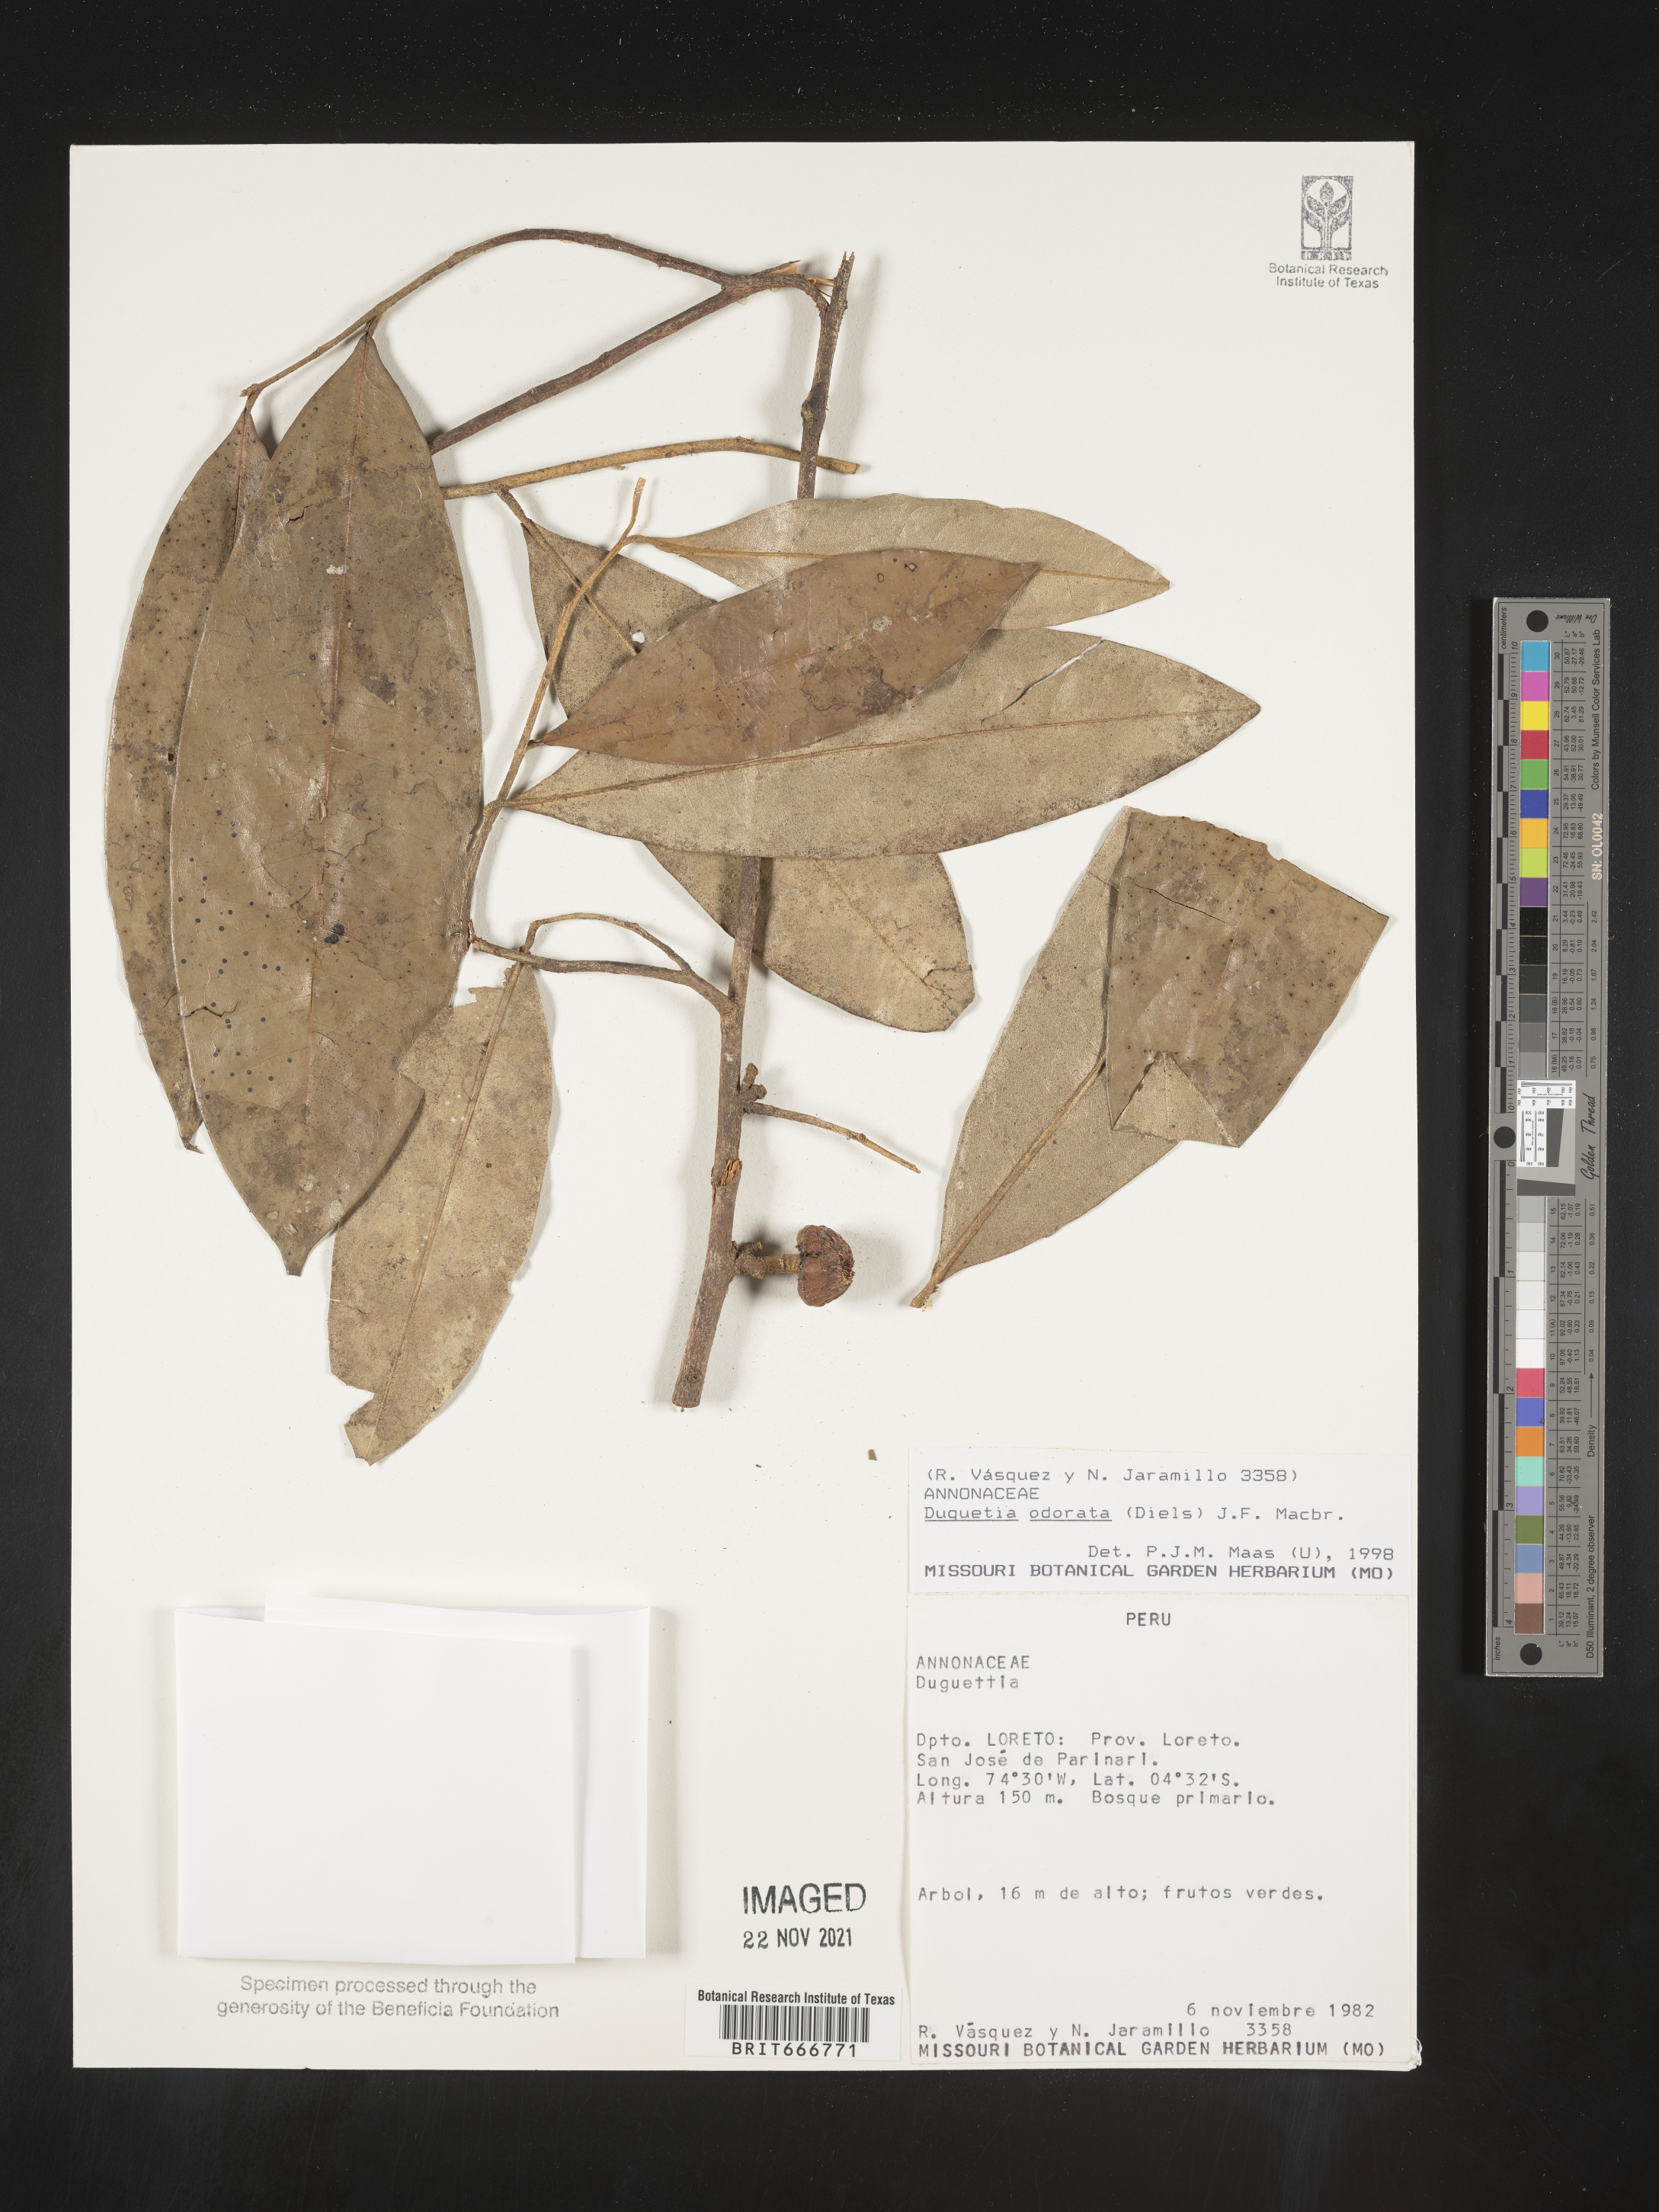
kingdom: Plantae
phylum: Tracheophyta
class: Magnoliopsida
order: Magnoliales
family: Annonaceae
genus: Duguetia
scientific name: Duguetia
